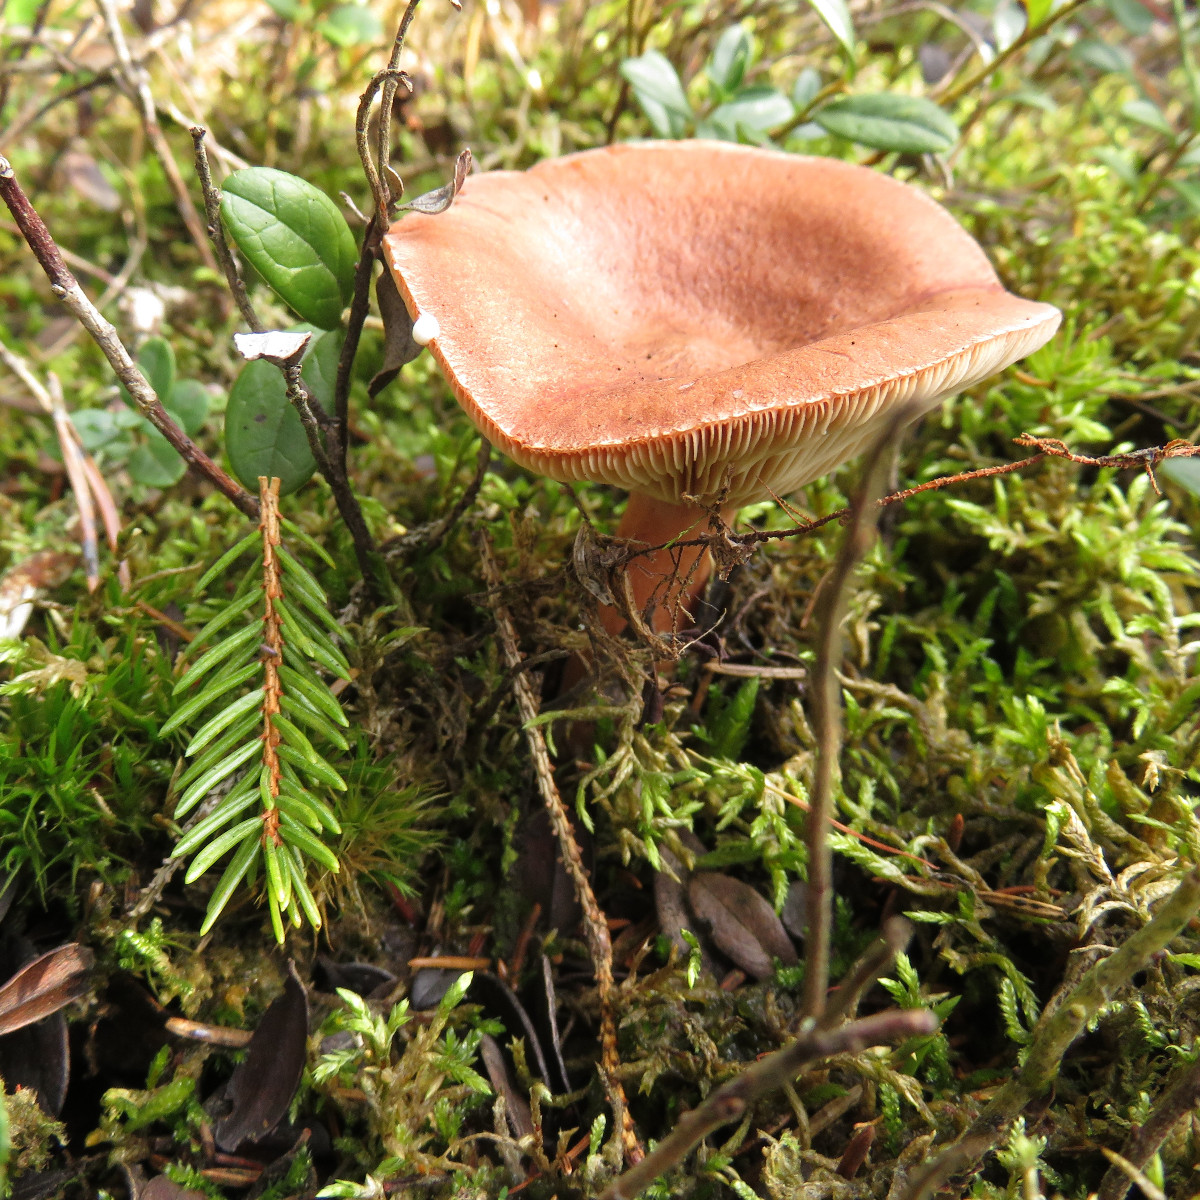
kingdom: Fungi
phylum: Basidiomycota
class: Agaricomycetes
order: Russulales
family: Russulaceae
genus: Lactarius
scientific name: Lactarius rufus
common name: rødbrun mælkehat
